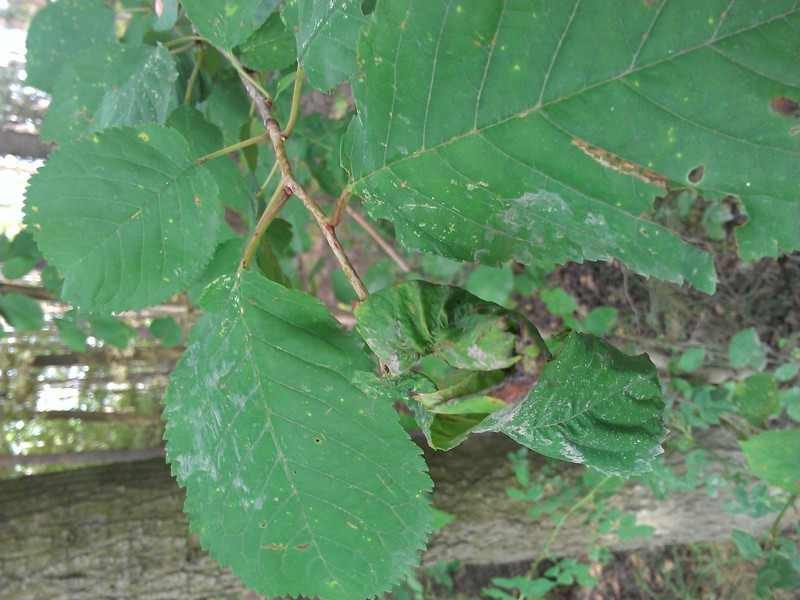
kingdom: Animalia
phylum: Arthropoda
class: Insecta
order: Hemiptera
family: Aphididae
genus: Aphis
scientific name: Aphis
